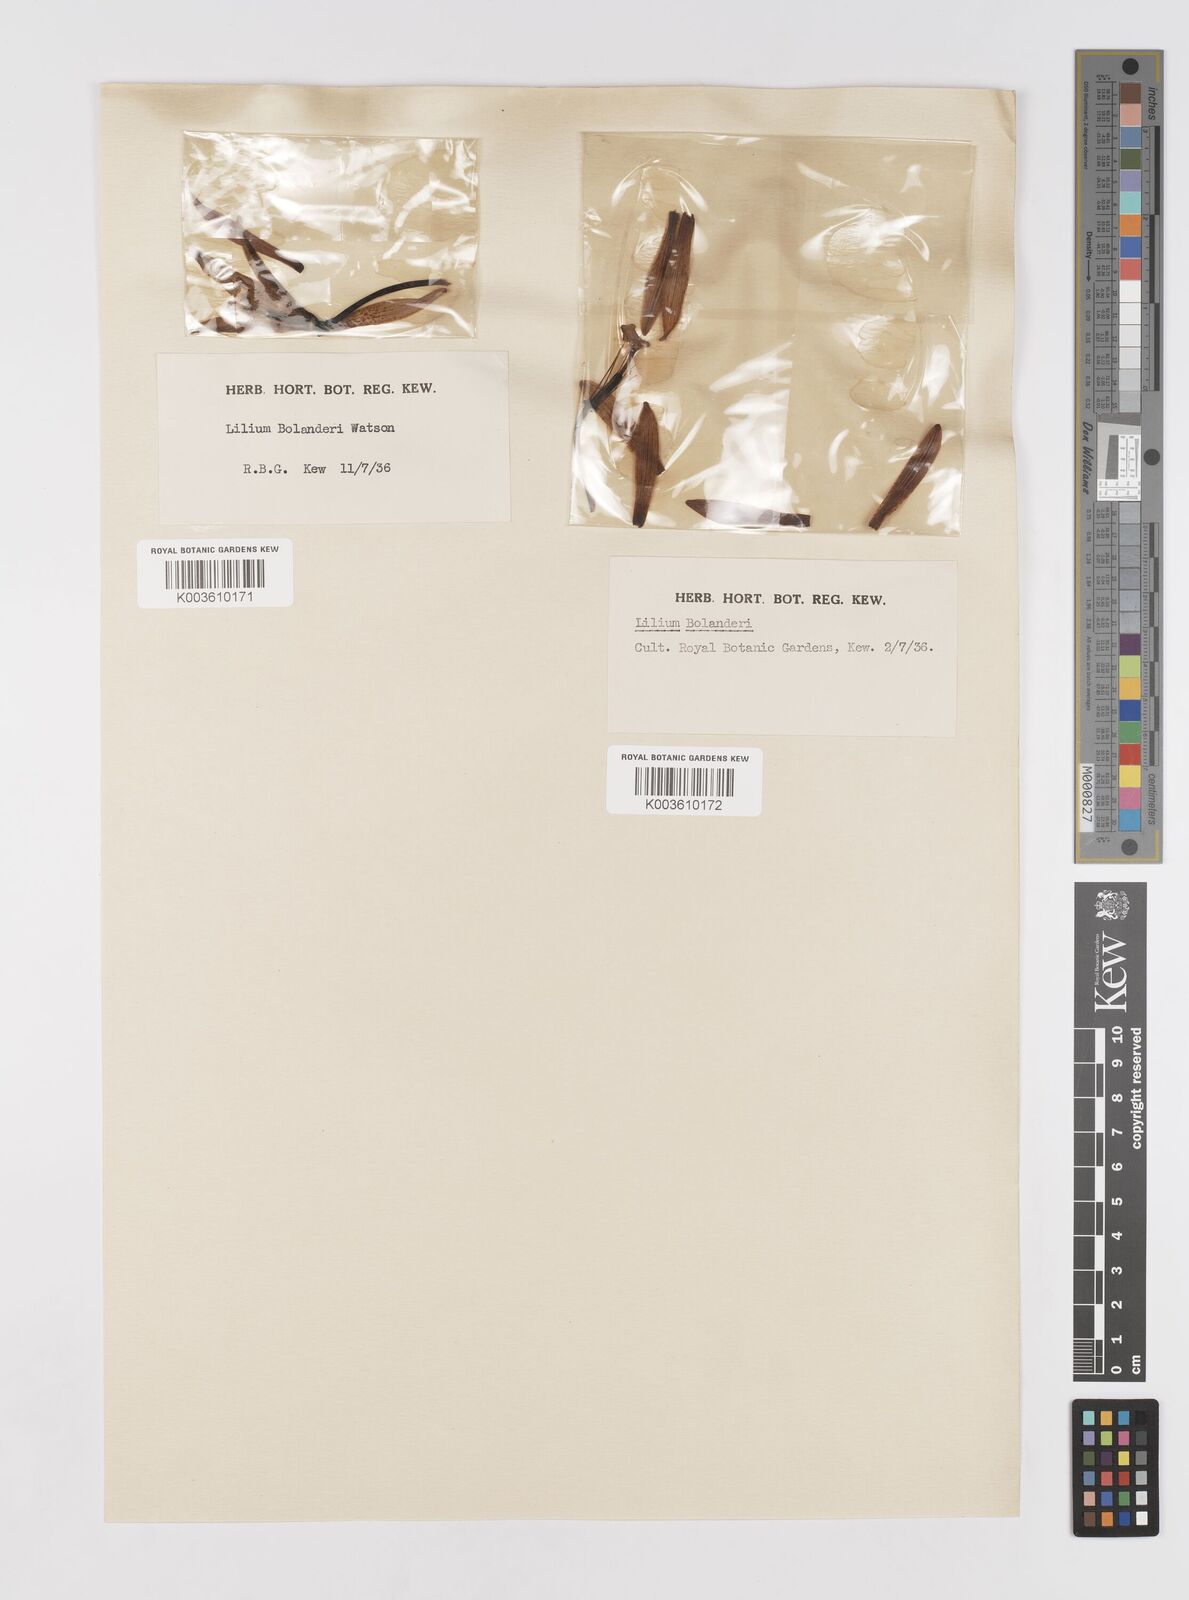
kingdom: Plantae
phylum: Tracheophyta
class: Liliopsida
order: Liliales
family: Liliaceae
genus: Lilium
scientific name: Lilium bolanderi
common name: Bolander's lily
